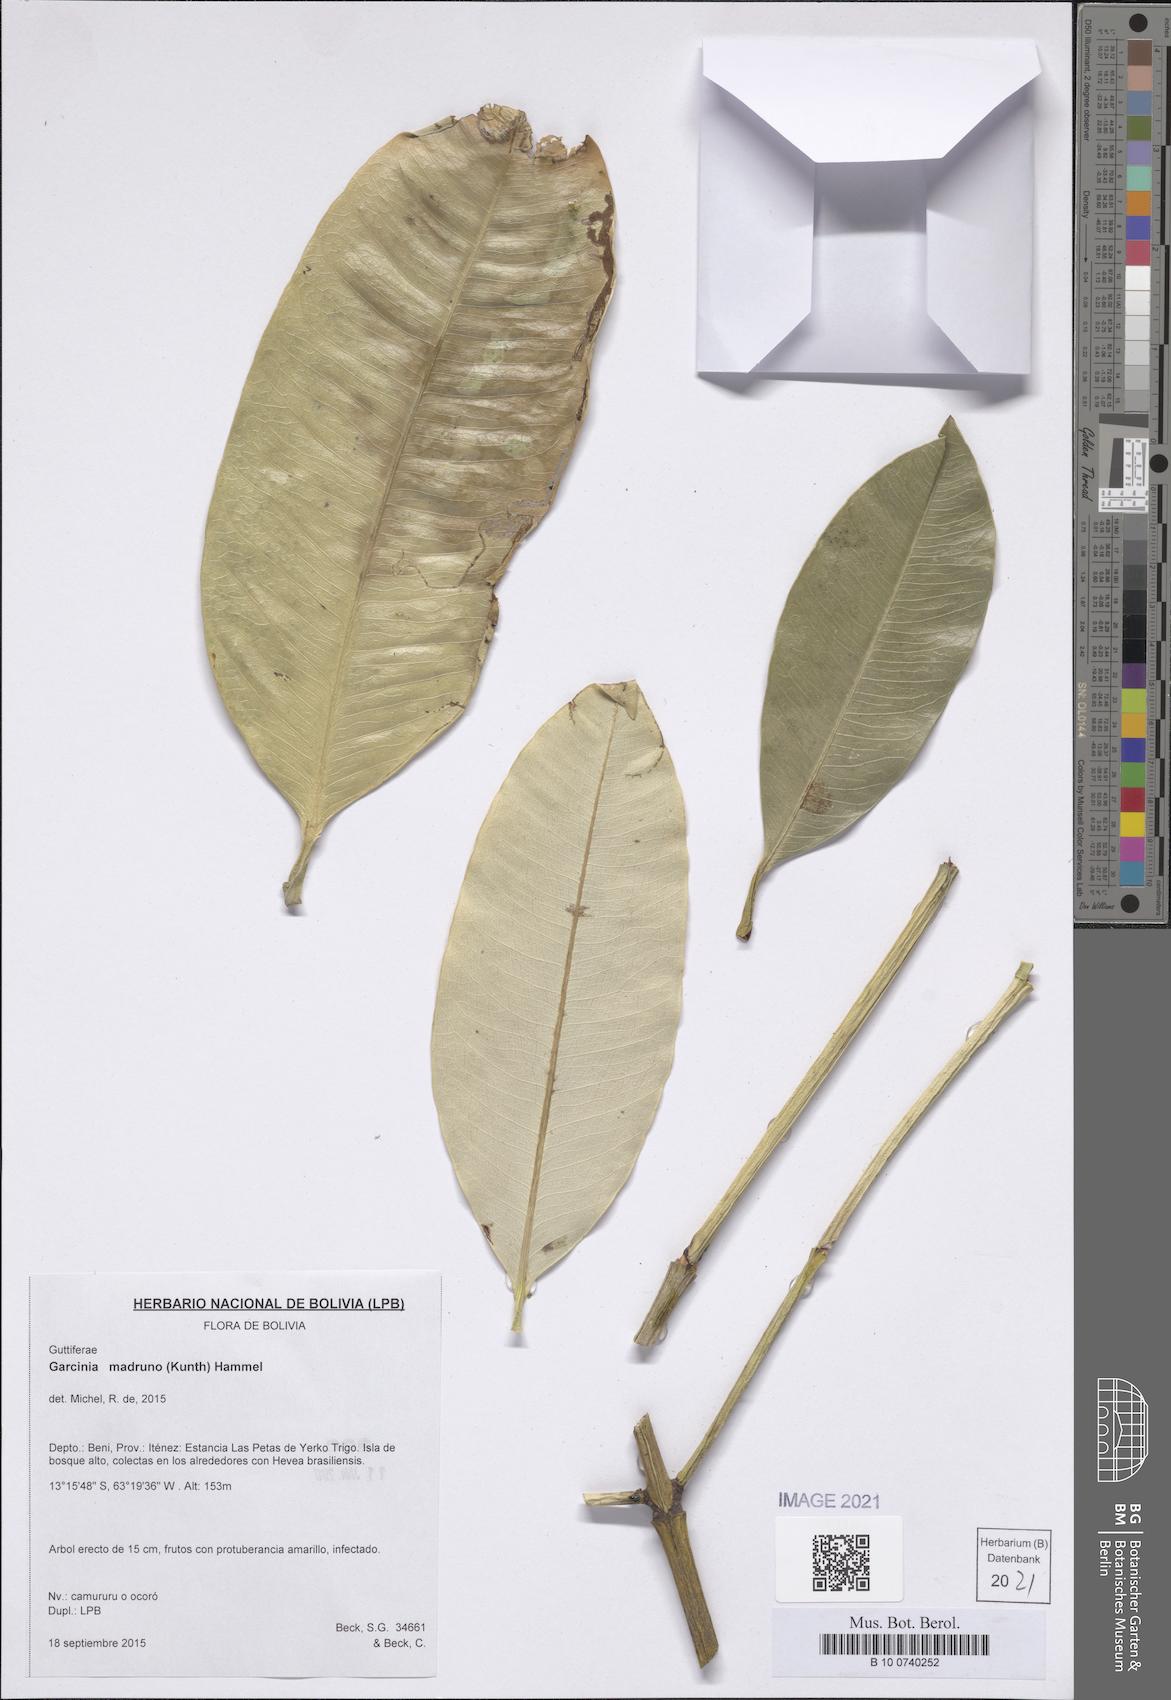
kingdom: Plantae
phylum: Tracheophyta
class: Magnoliopsida
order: Malpighiales
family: Clusiaceae
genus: Garcinia
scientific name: Garcinia madruno
